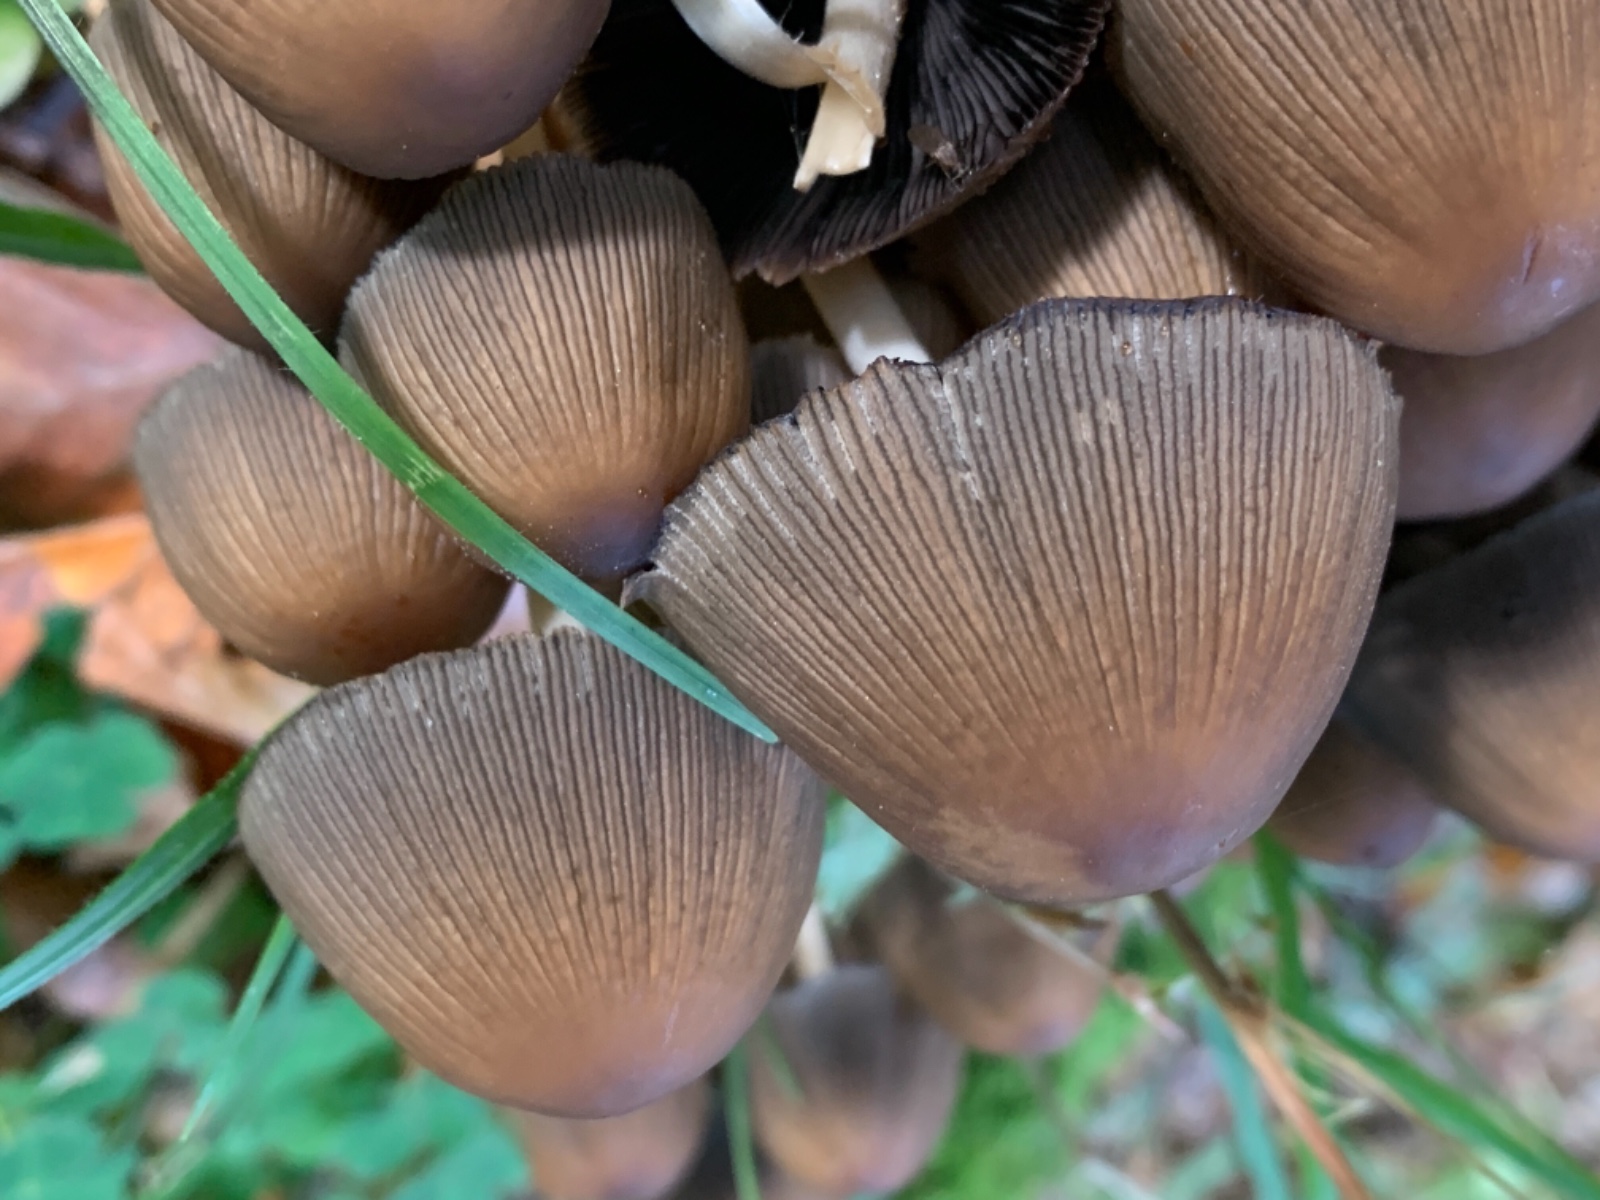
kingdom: Fungi
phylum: Basidiomycota
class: Agaricomycetes
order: Agaricales
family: Psathyrellaceae
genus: Coprinellus
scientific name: Coprinellus micaceus
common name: glimmer-blækhat
